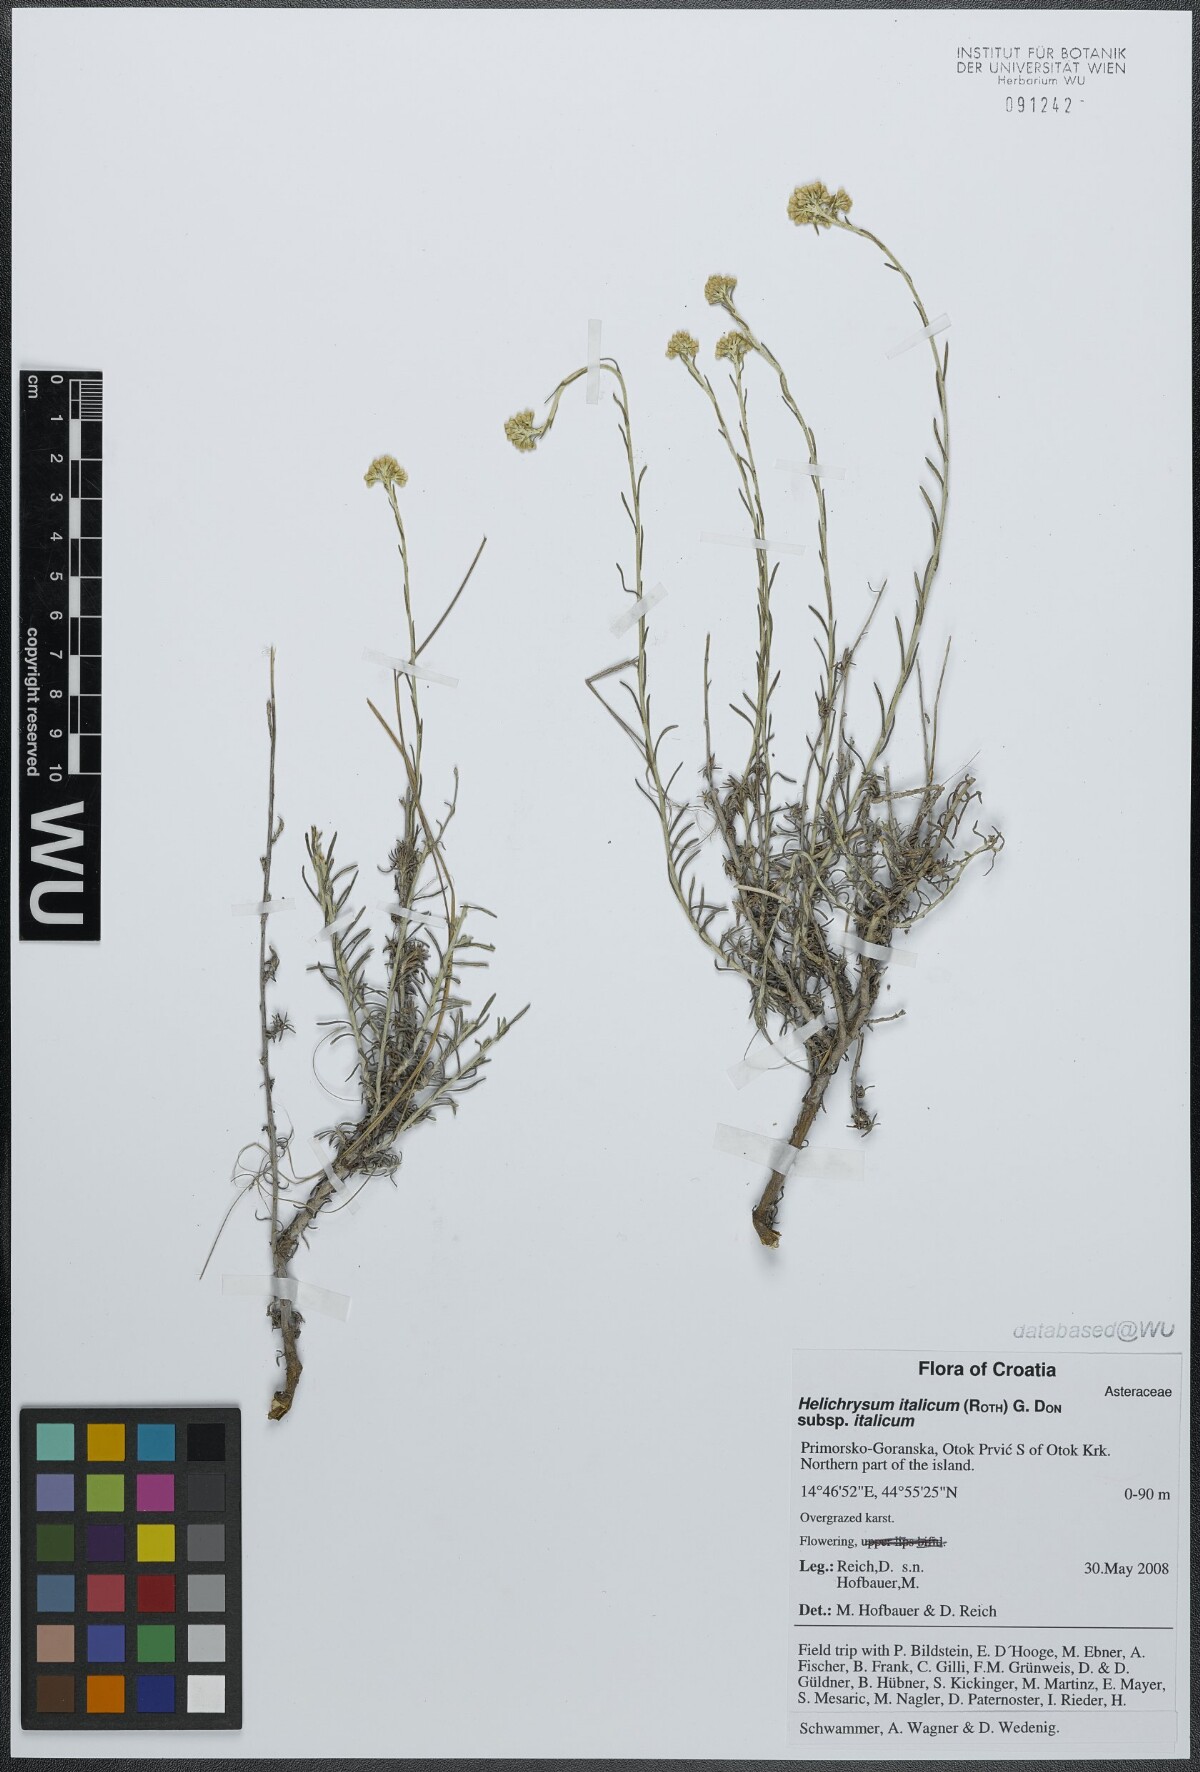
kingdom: Plantae
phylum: Tracheophyta
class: Magnoliopsida
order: Asterales
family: Asteraceae
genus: Helichrysum
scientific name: Helichrysum italicum
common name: Curryplant
